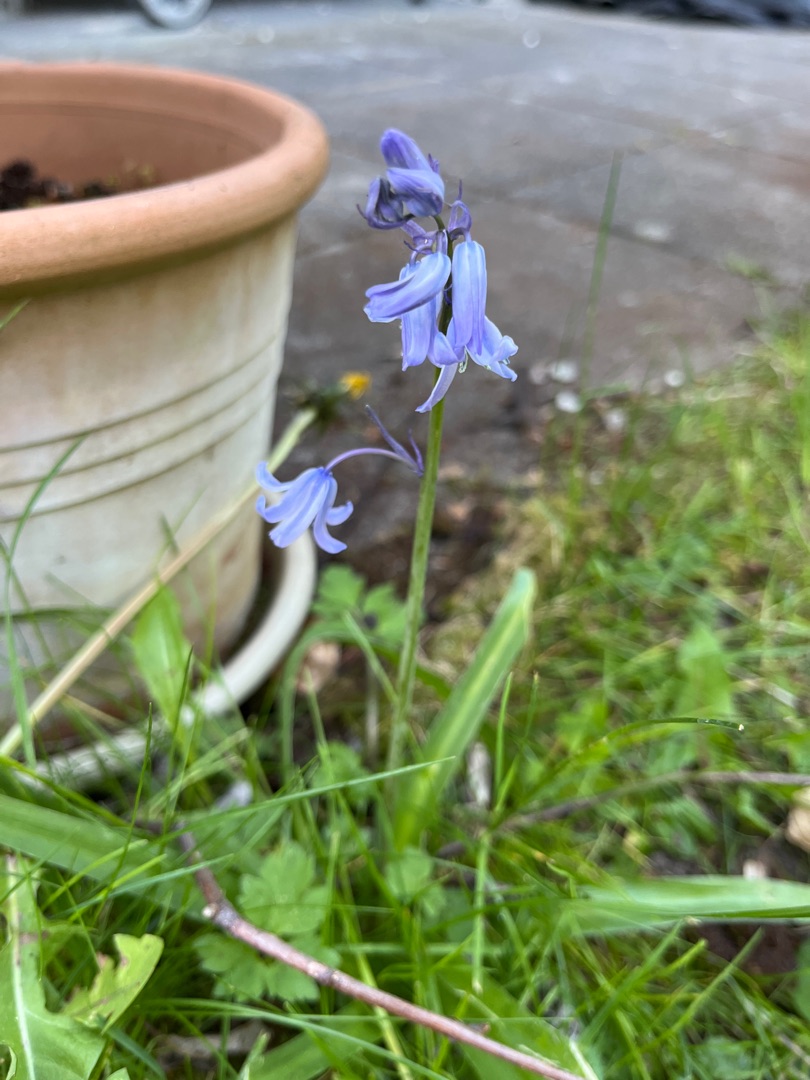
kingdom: Plantae
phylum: Tracheophyta
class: Liliopsida
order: Asparagales
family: Asparagaceae
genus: Hyacinthoides
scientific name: Hyacinthoides massartiana
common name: Hybrid-klokkeskilla
